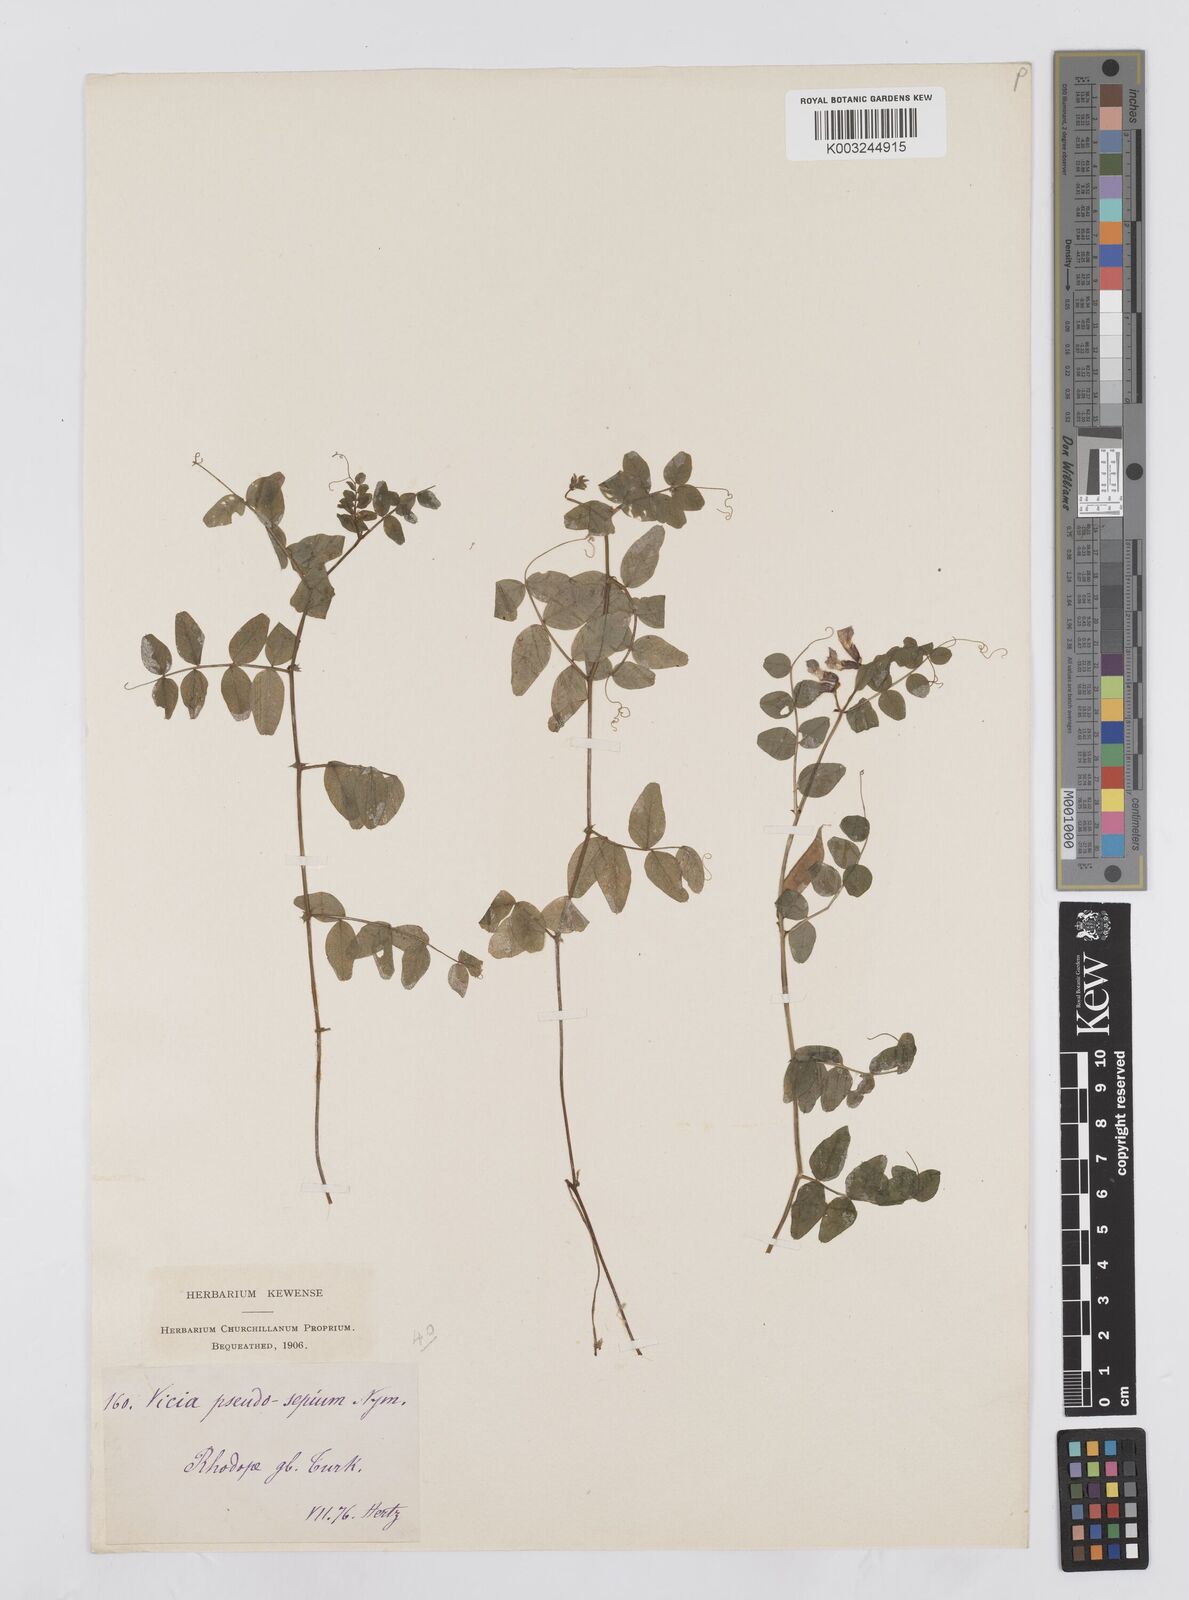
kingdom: Plantae
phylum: Tracheophyta
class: Magnoliopsida
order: Fabales
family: Fabaceae
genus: Vicia
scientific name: Vicia
